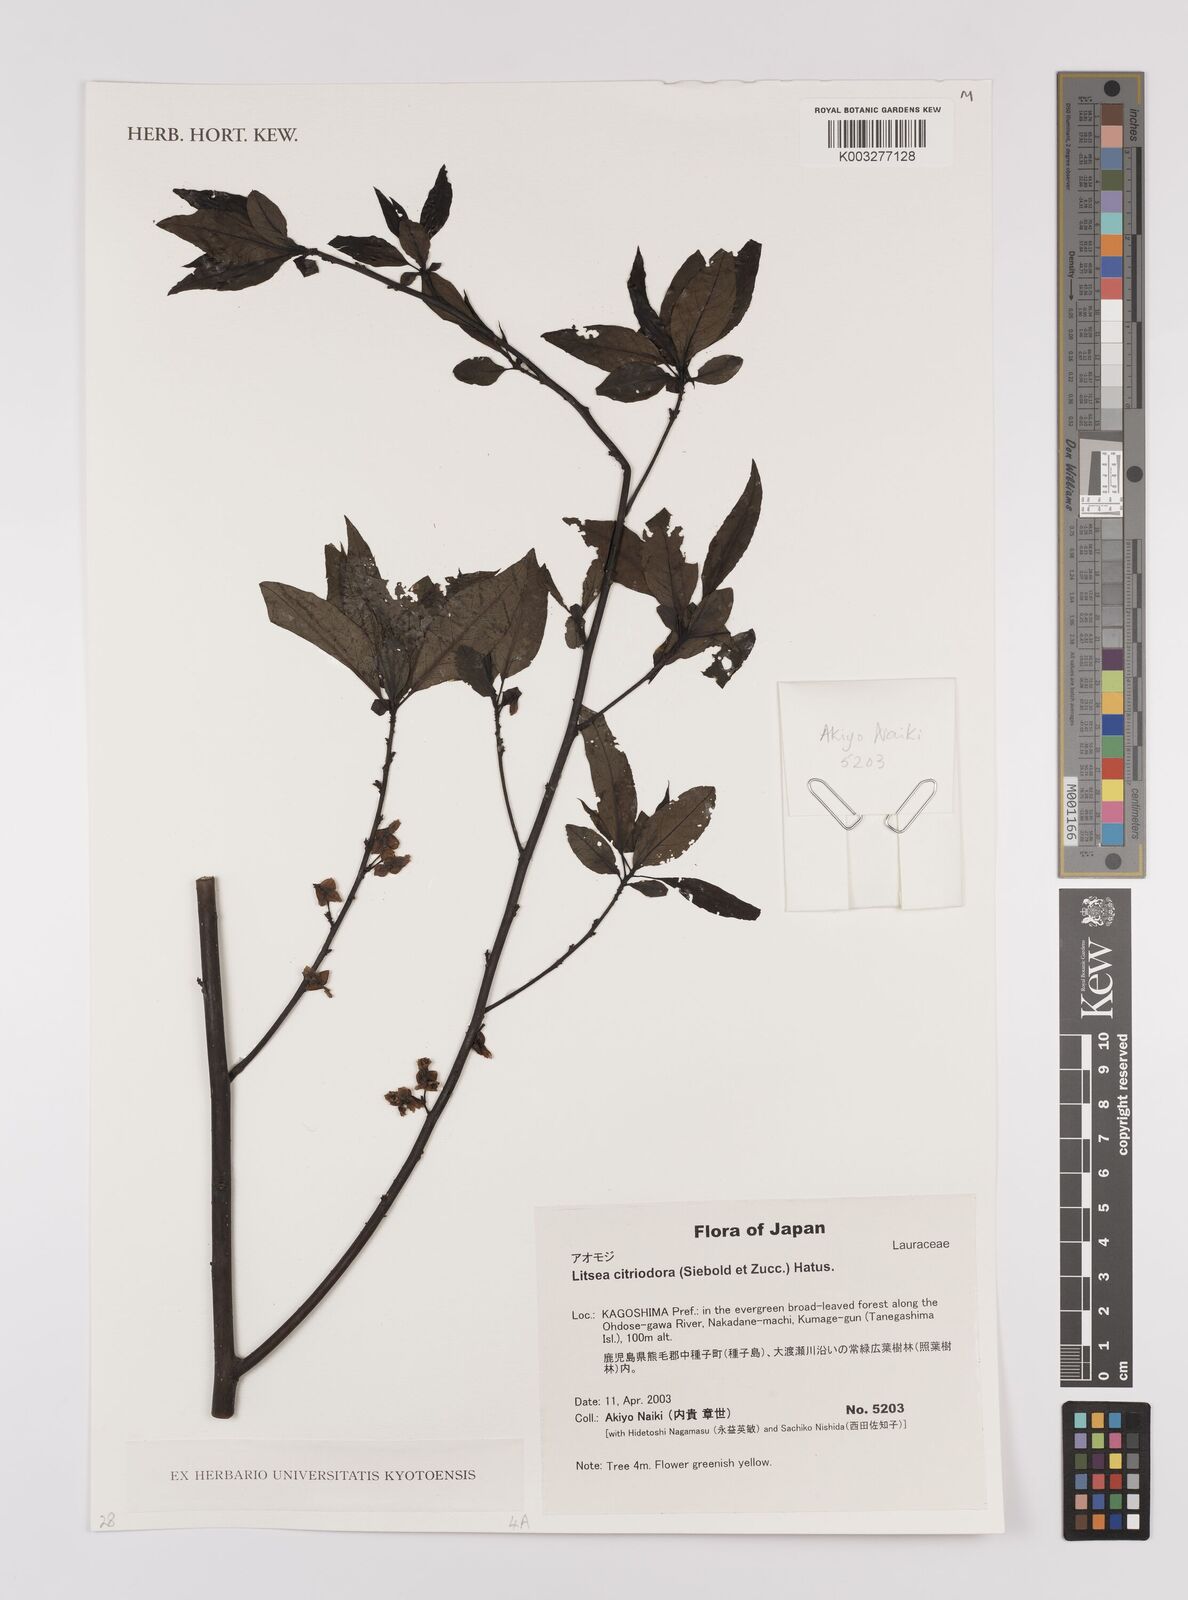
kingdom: Plantae
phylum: Tracheophyta
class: Magnoliopsida
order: Laurales
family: Lauraceae
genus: Lindera
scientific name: Lindera citriodora
